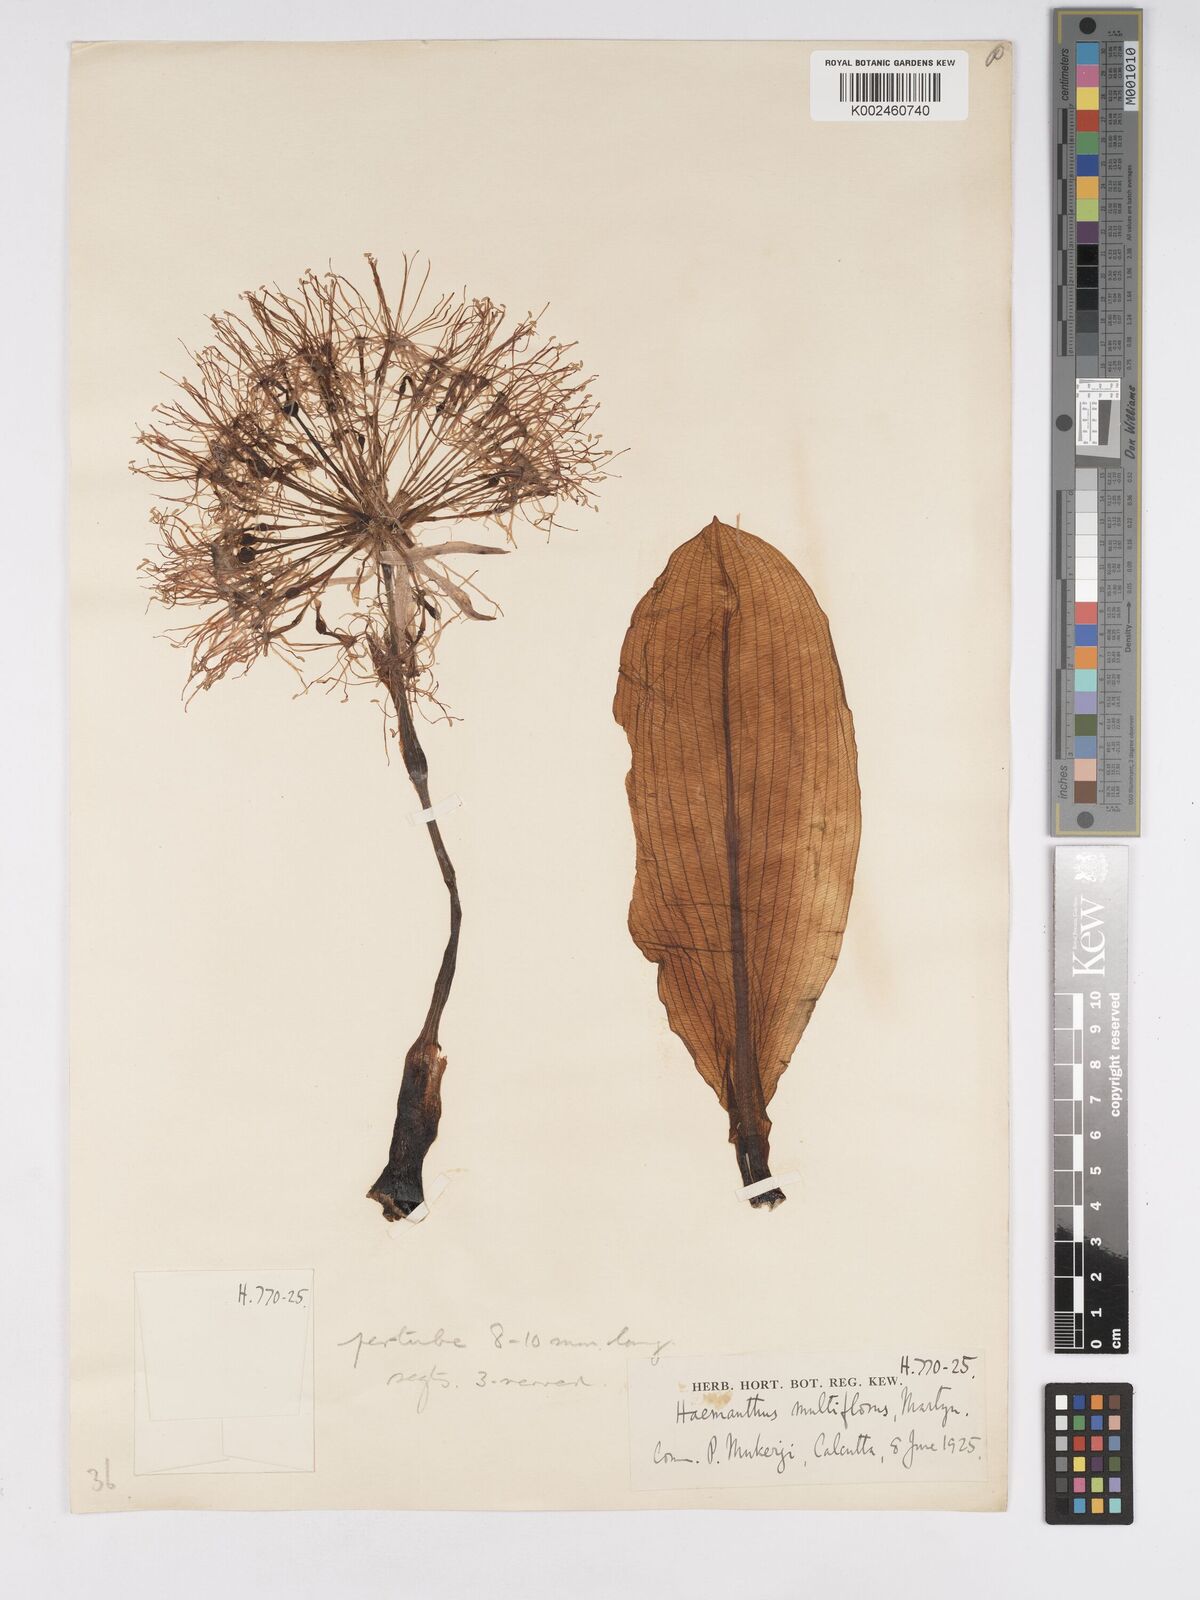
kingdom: Plantae
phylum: Tracheophyta
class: Liliopsida
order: Asparagales
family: Amaryllidaceae
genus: Scadoxus
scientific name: Scadoxus multiflorus
